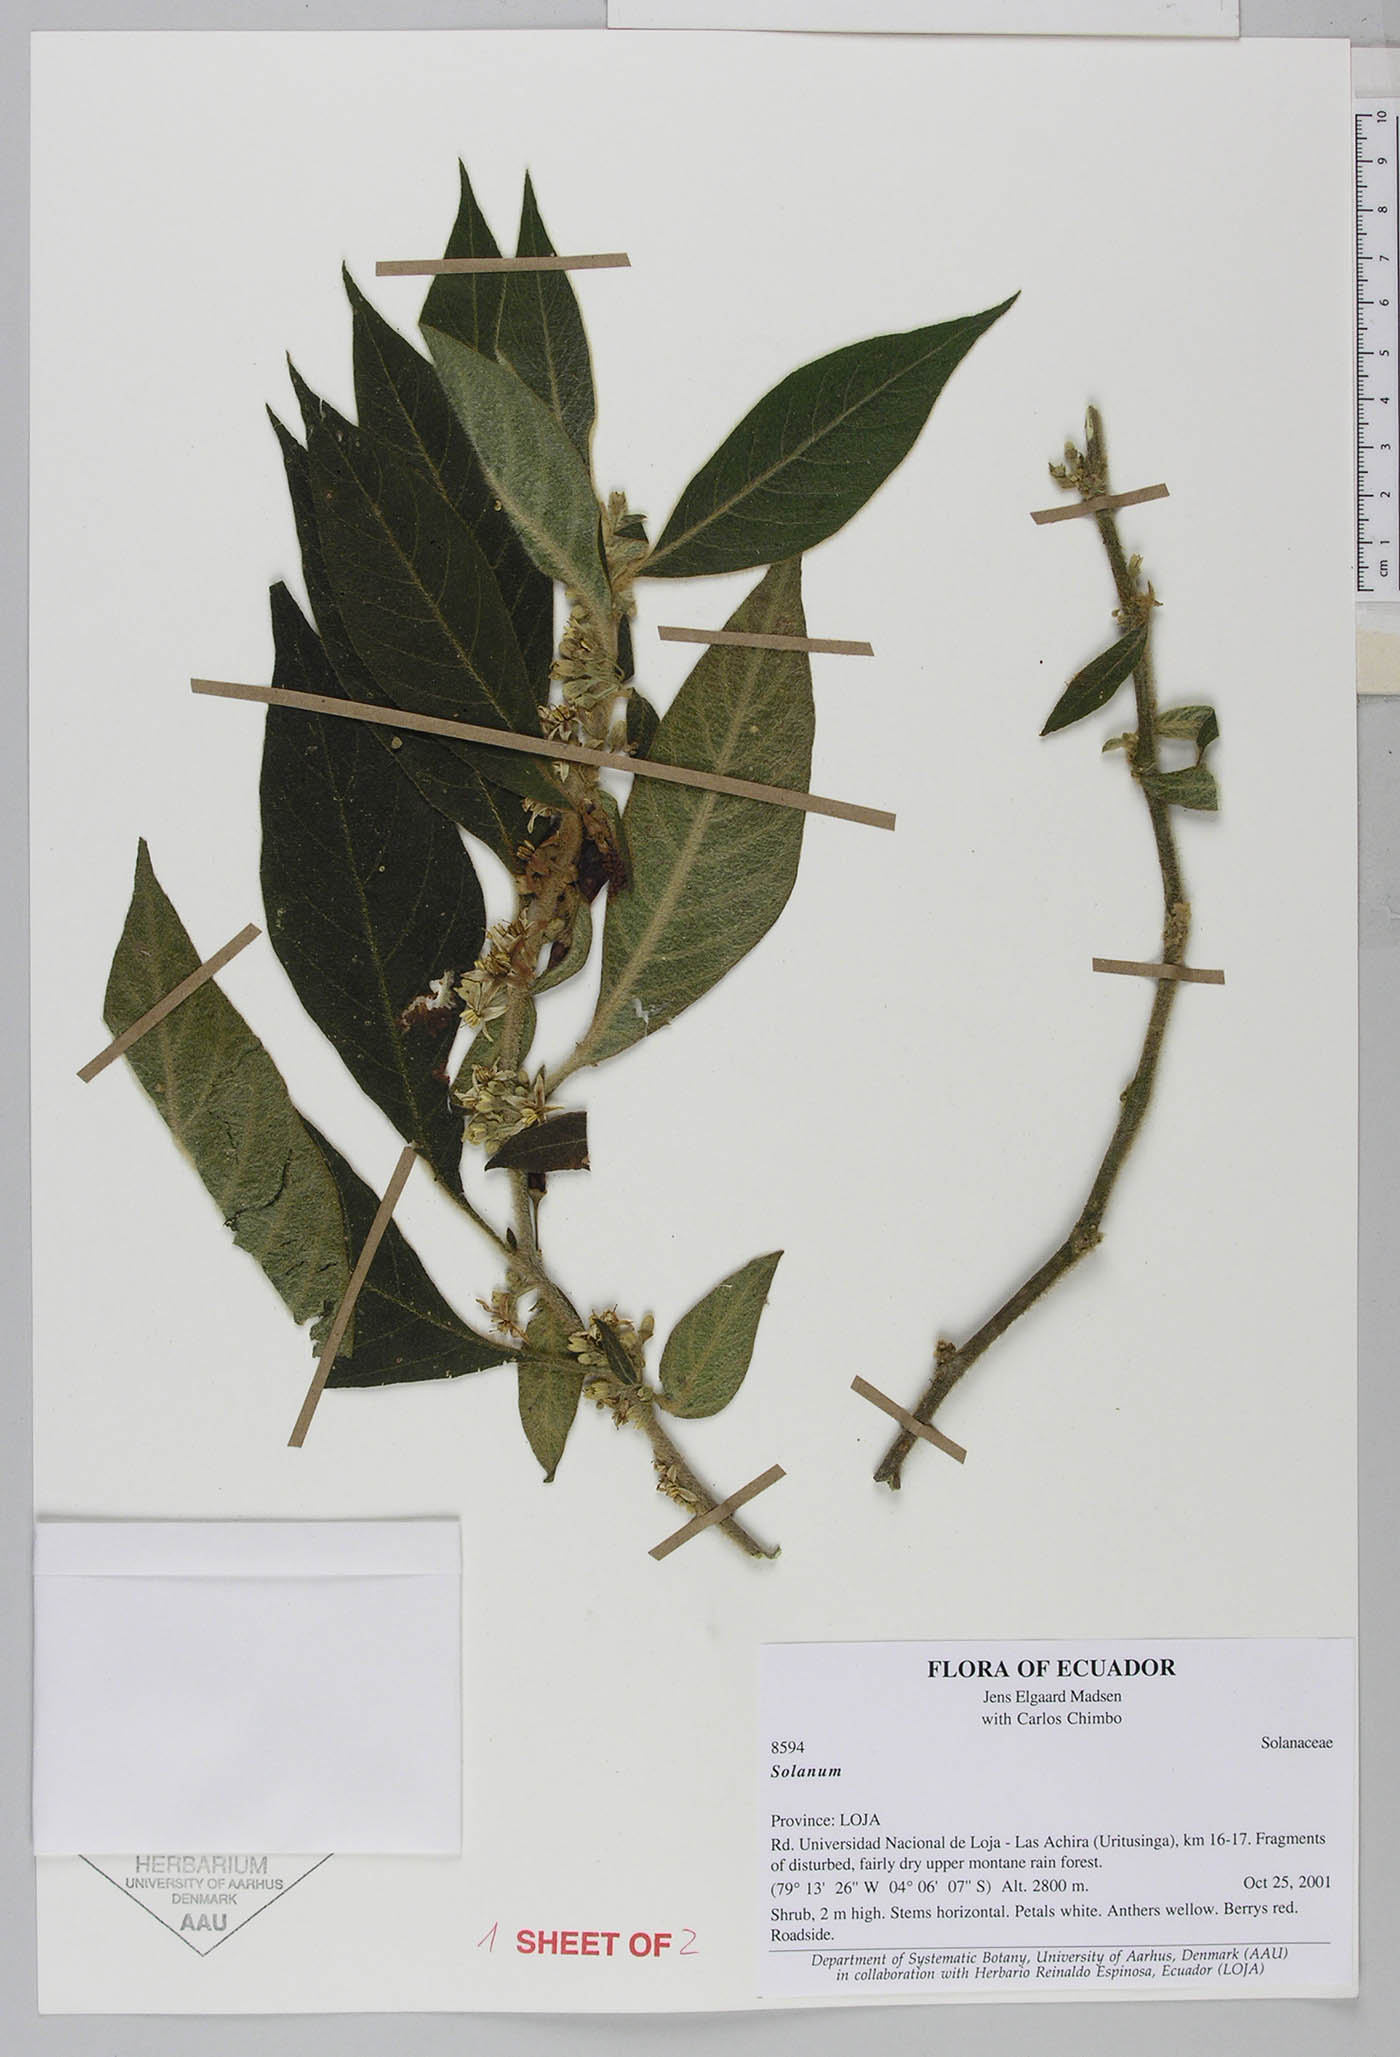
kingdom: Plantae
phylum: Tracheophyta
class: Magnoliopsida
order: Solanales
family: Solanaceae
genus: Lycianthes
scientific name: Lycianthes
